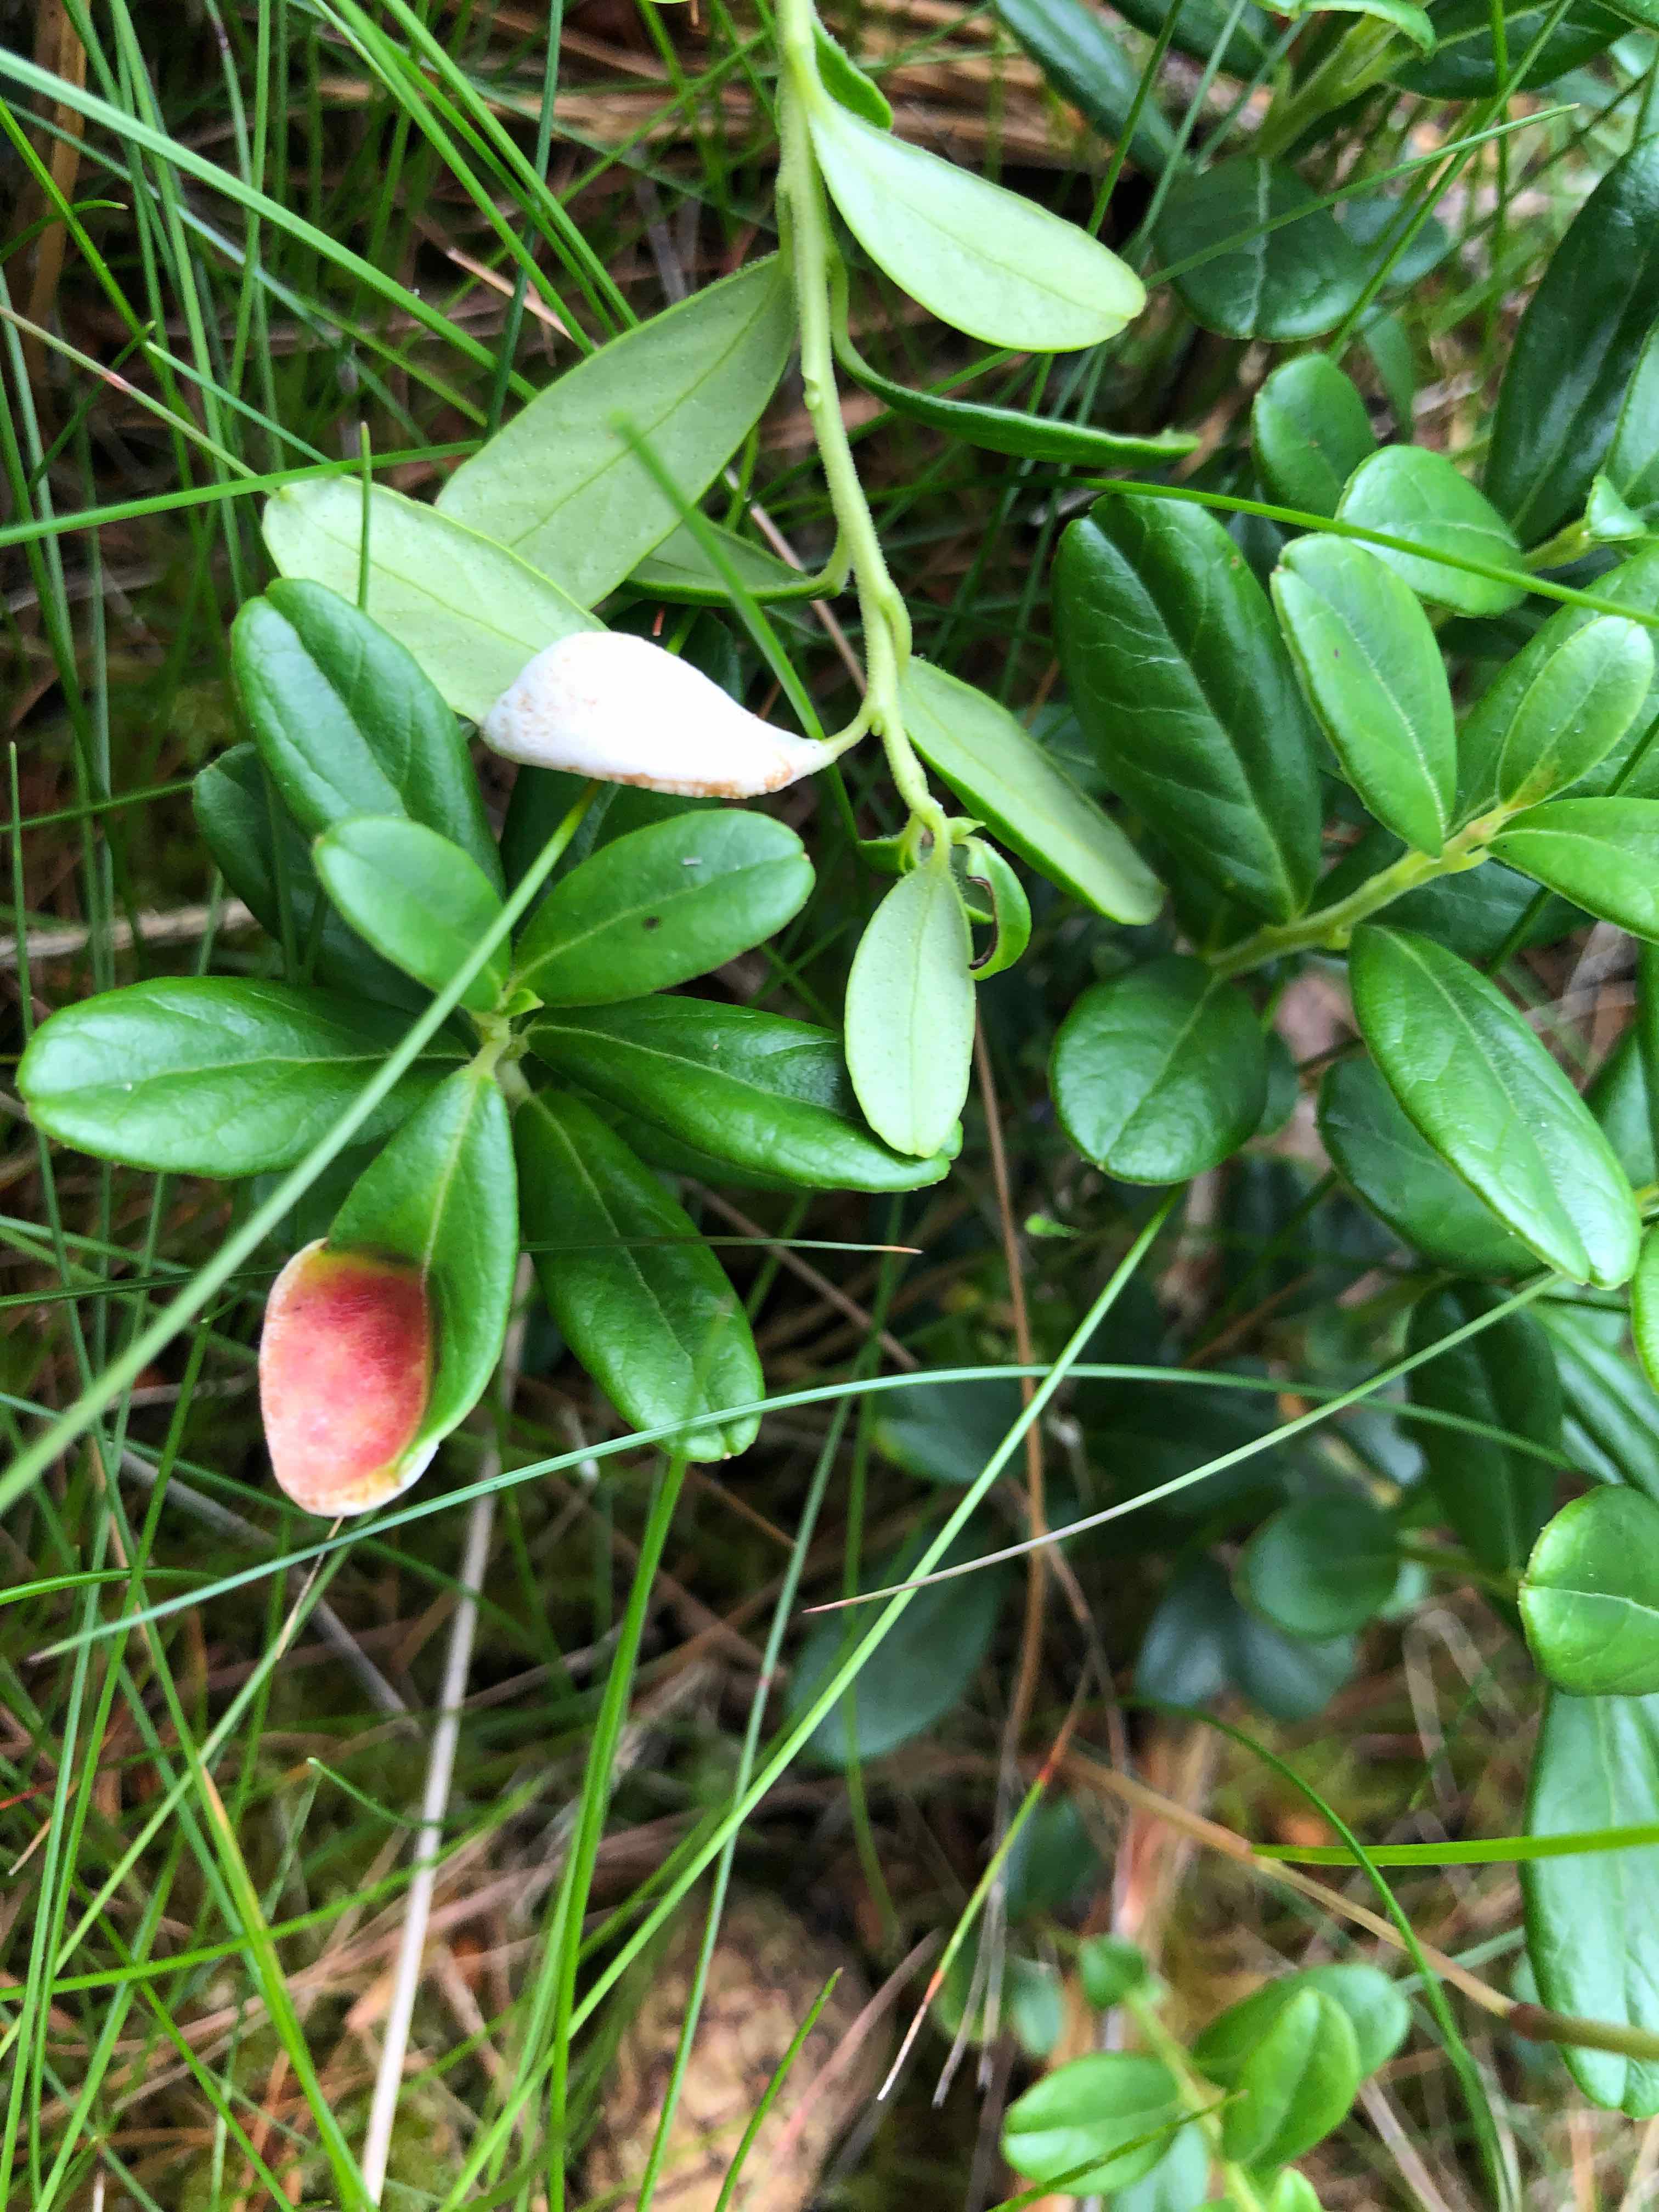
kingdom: Fungi
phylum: Basidiomycota
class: Exobasidiomycetes
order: Exobasidiales
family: Exobasidiaceae
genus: Exobasidium
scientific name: Exobasidium vaccinii
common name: tyttebærblad-bøllesvamp
